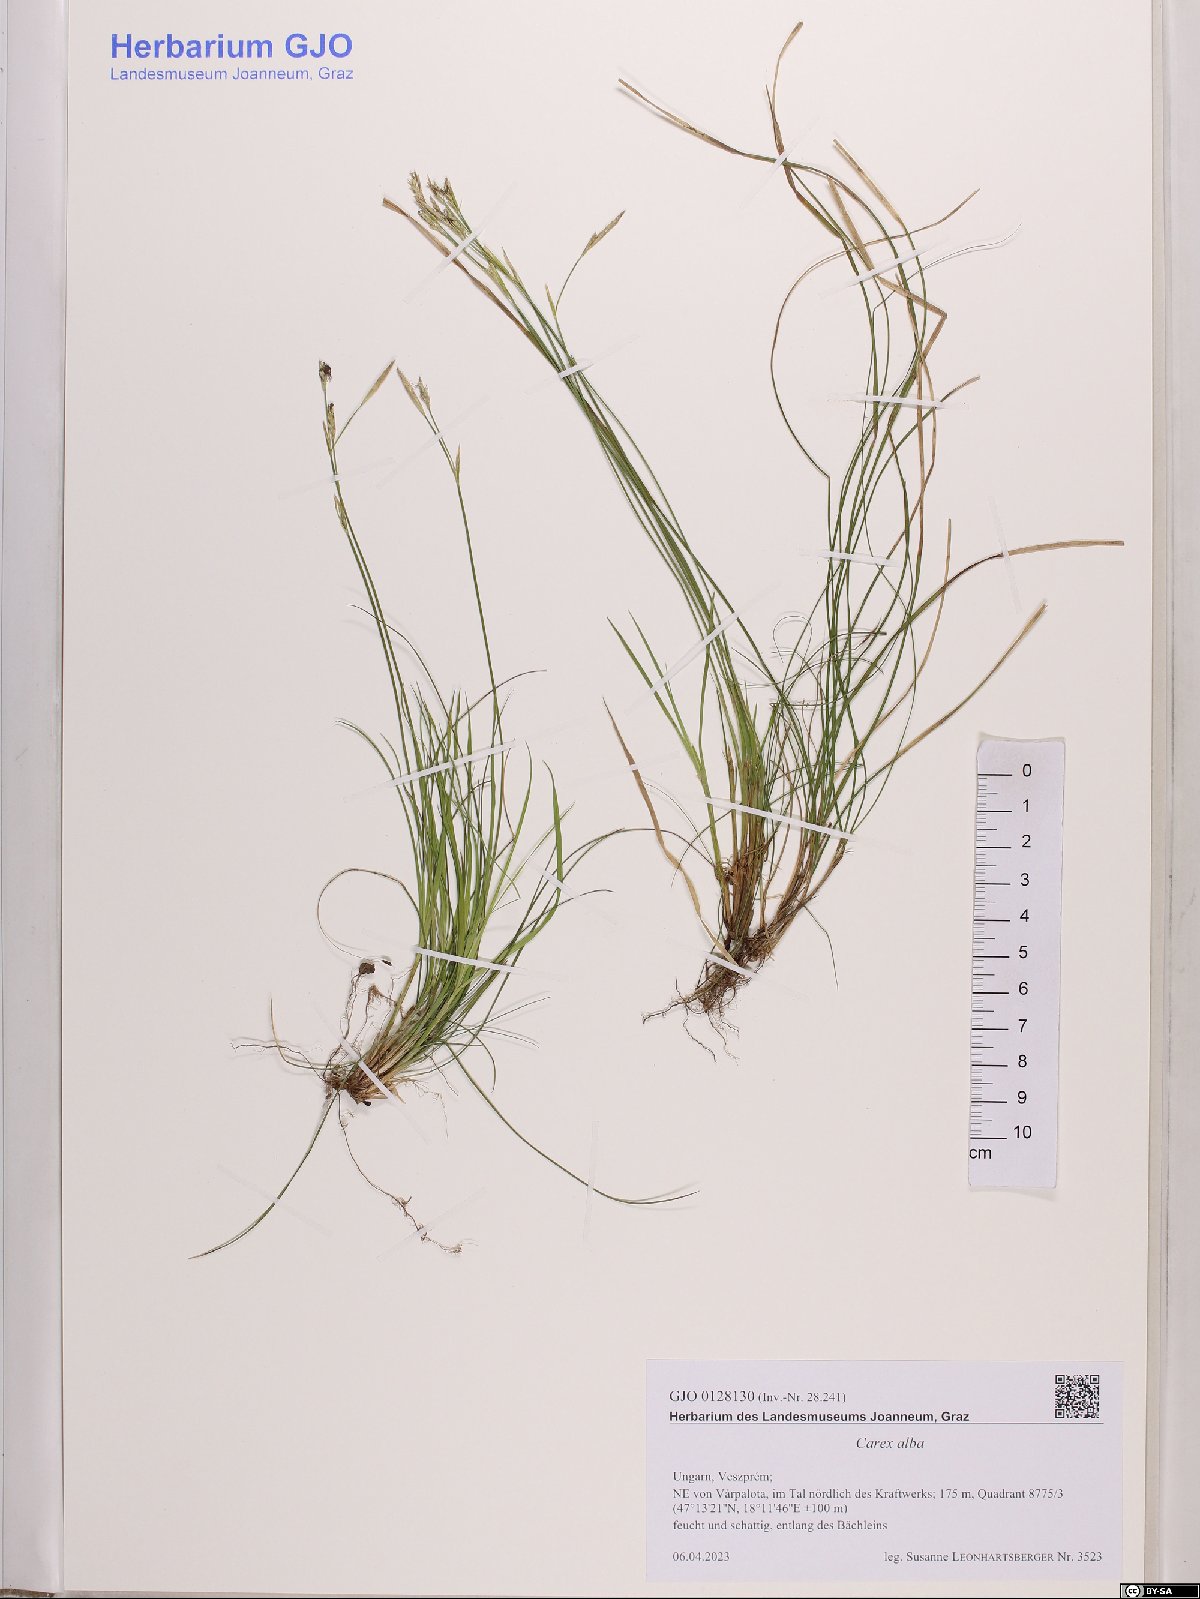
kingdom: Plantae
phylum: Tracheophyta
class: Liliopsida
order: Poales
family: Cyperaceae
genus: Carex
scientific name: Carex alba
